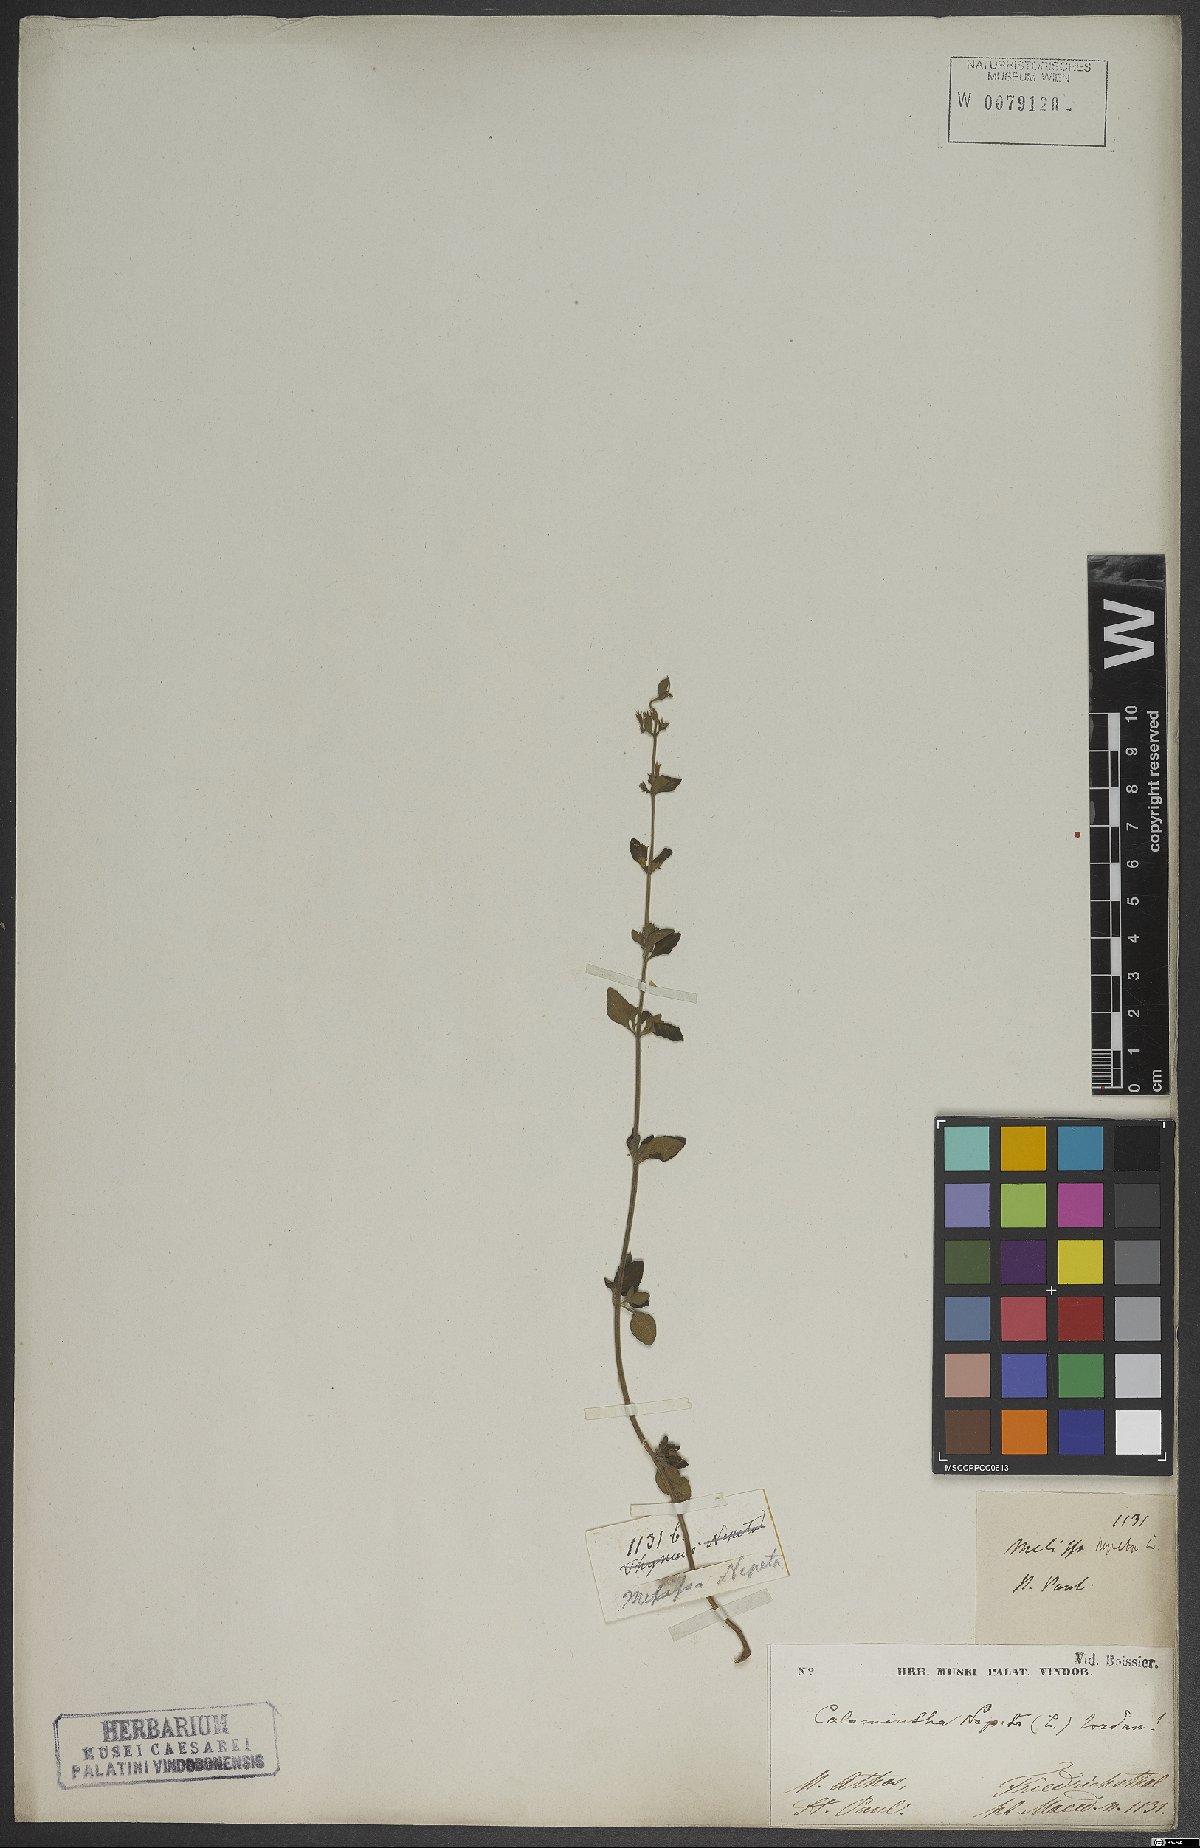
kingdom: Plantae
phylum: Tracheophyta
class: Magnoliopsida
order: Lamiales
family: Lamiaceae
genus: Clinopodium
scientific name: Clinopodium nepeta
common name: Lesser calamint
